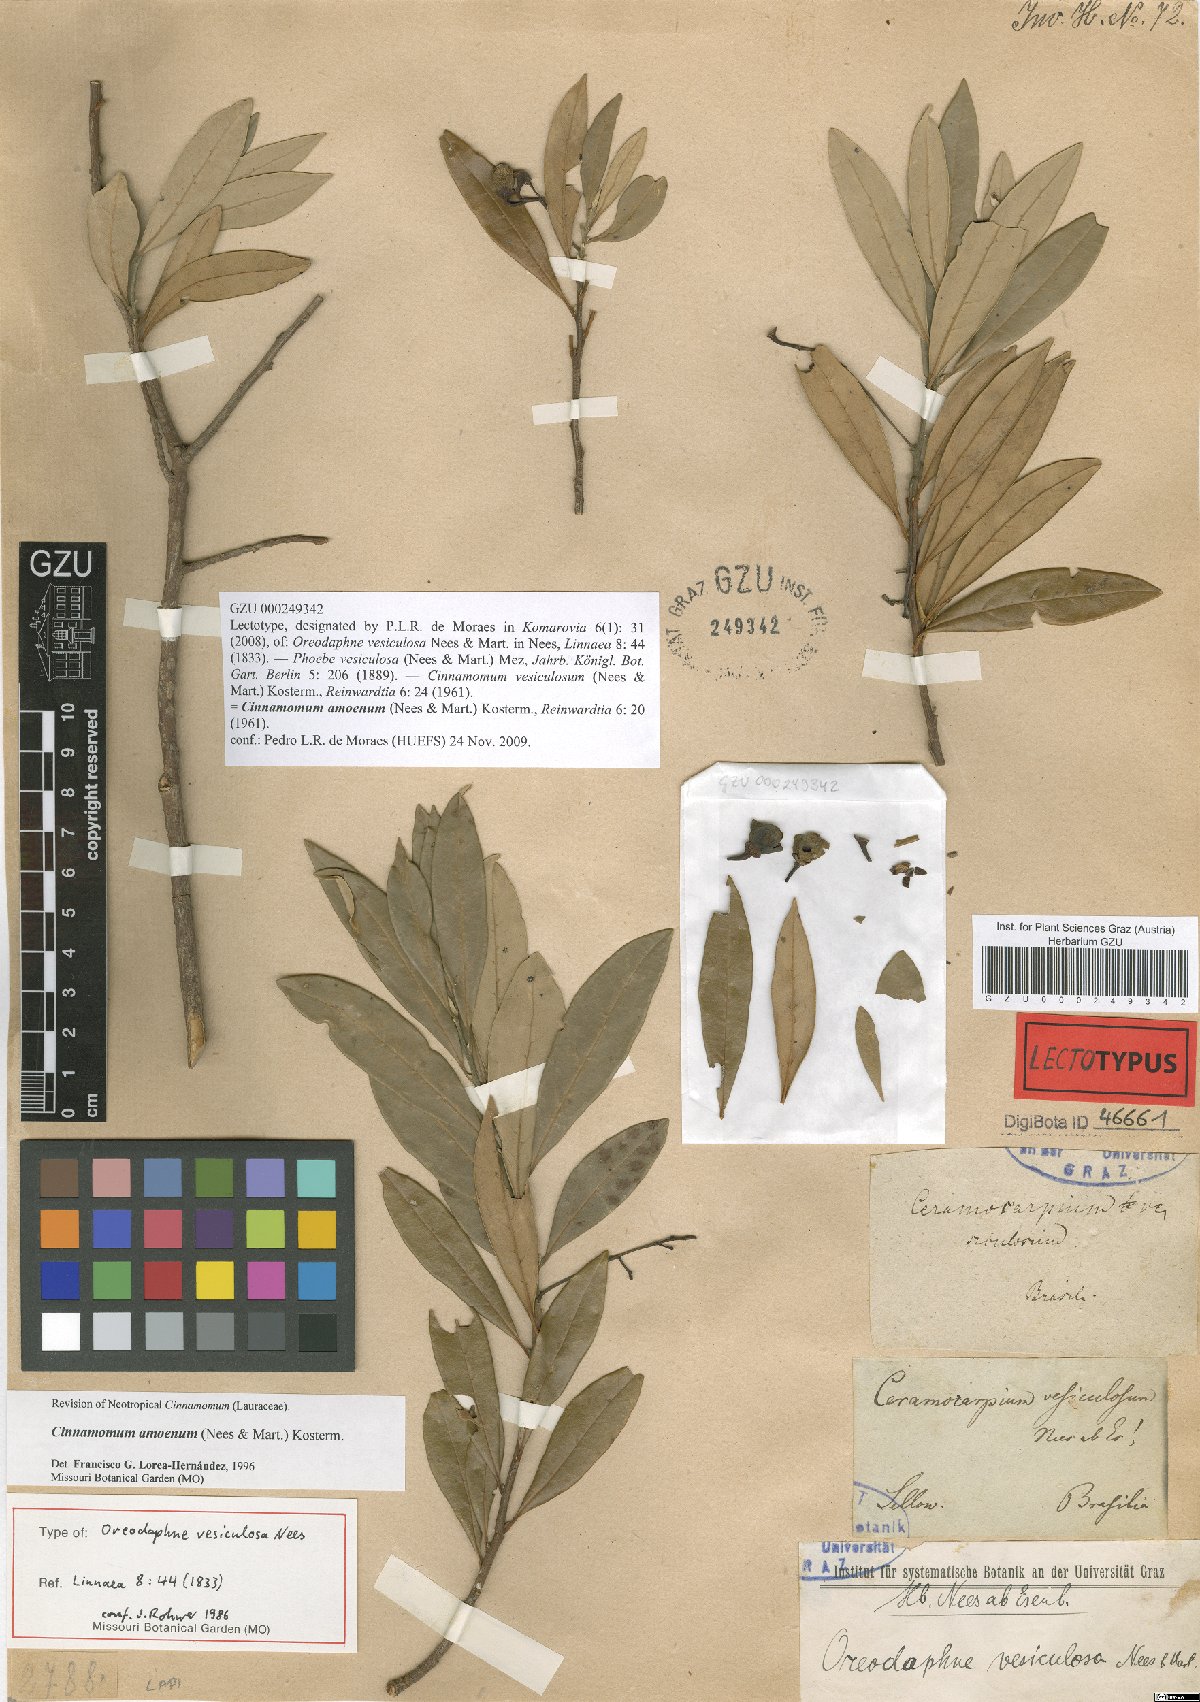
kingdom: Plantae
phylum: Tracheophyta
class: Magnoliopsida
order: Laurales
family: Lauraceae
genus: Aiouea
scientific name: Aiouea amoena
